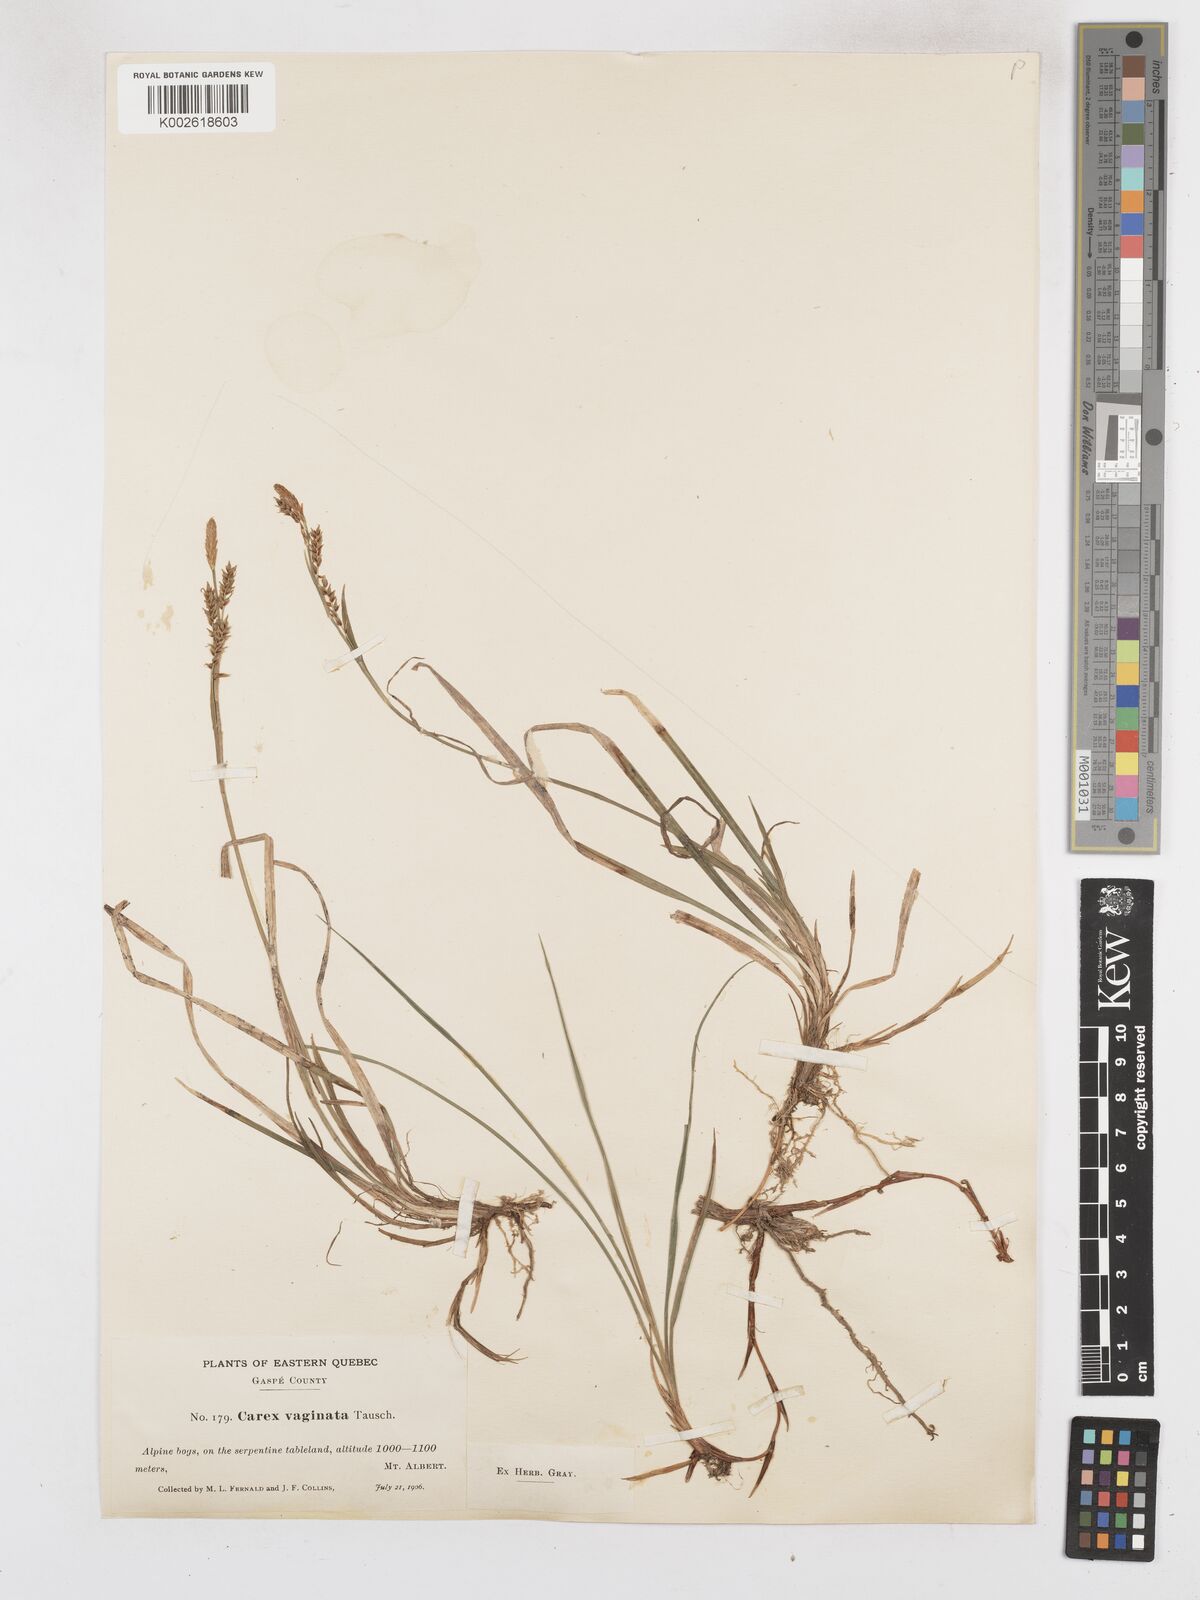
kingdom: Plantae
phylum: Tracheophyta
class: Liliopsida
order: Poales
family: Cyperaceae
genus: Carex
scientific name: Carex vaginata
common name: Sheathed sedge
